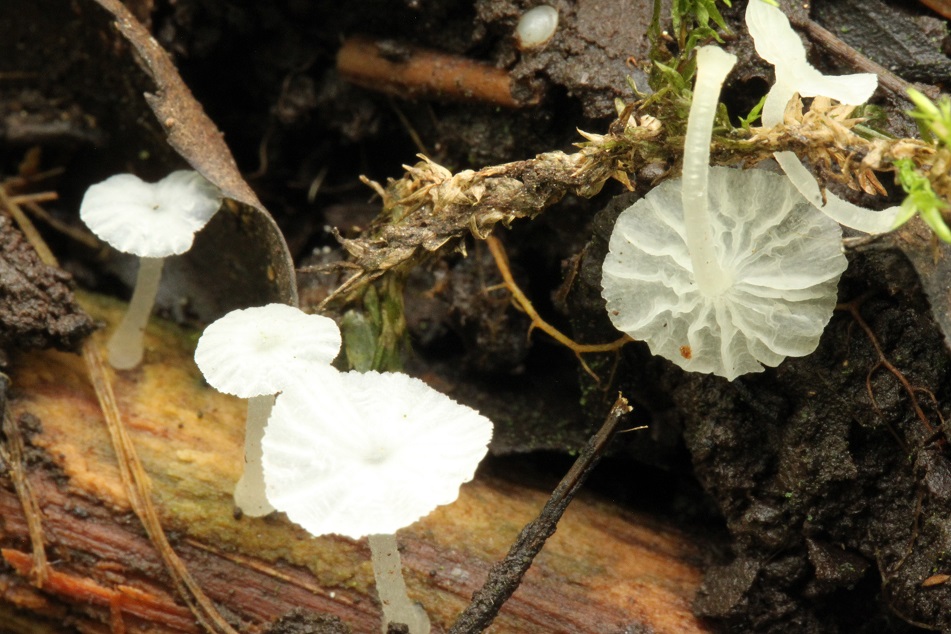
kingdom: Fungi
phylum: Basidiomycota
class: Agaricomycetes
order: Agaricales
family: Tricholomataceae
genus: Delicatula
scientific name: Delicatula integrella
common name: slørhuesvamp
